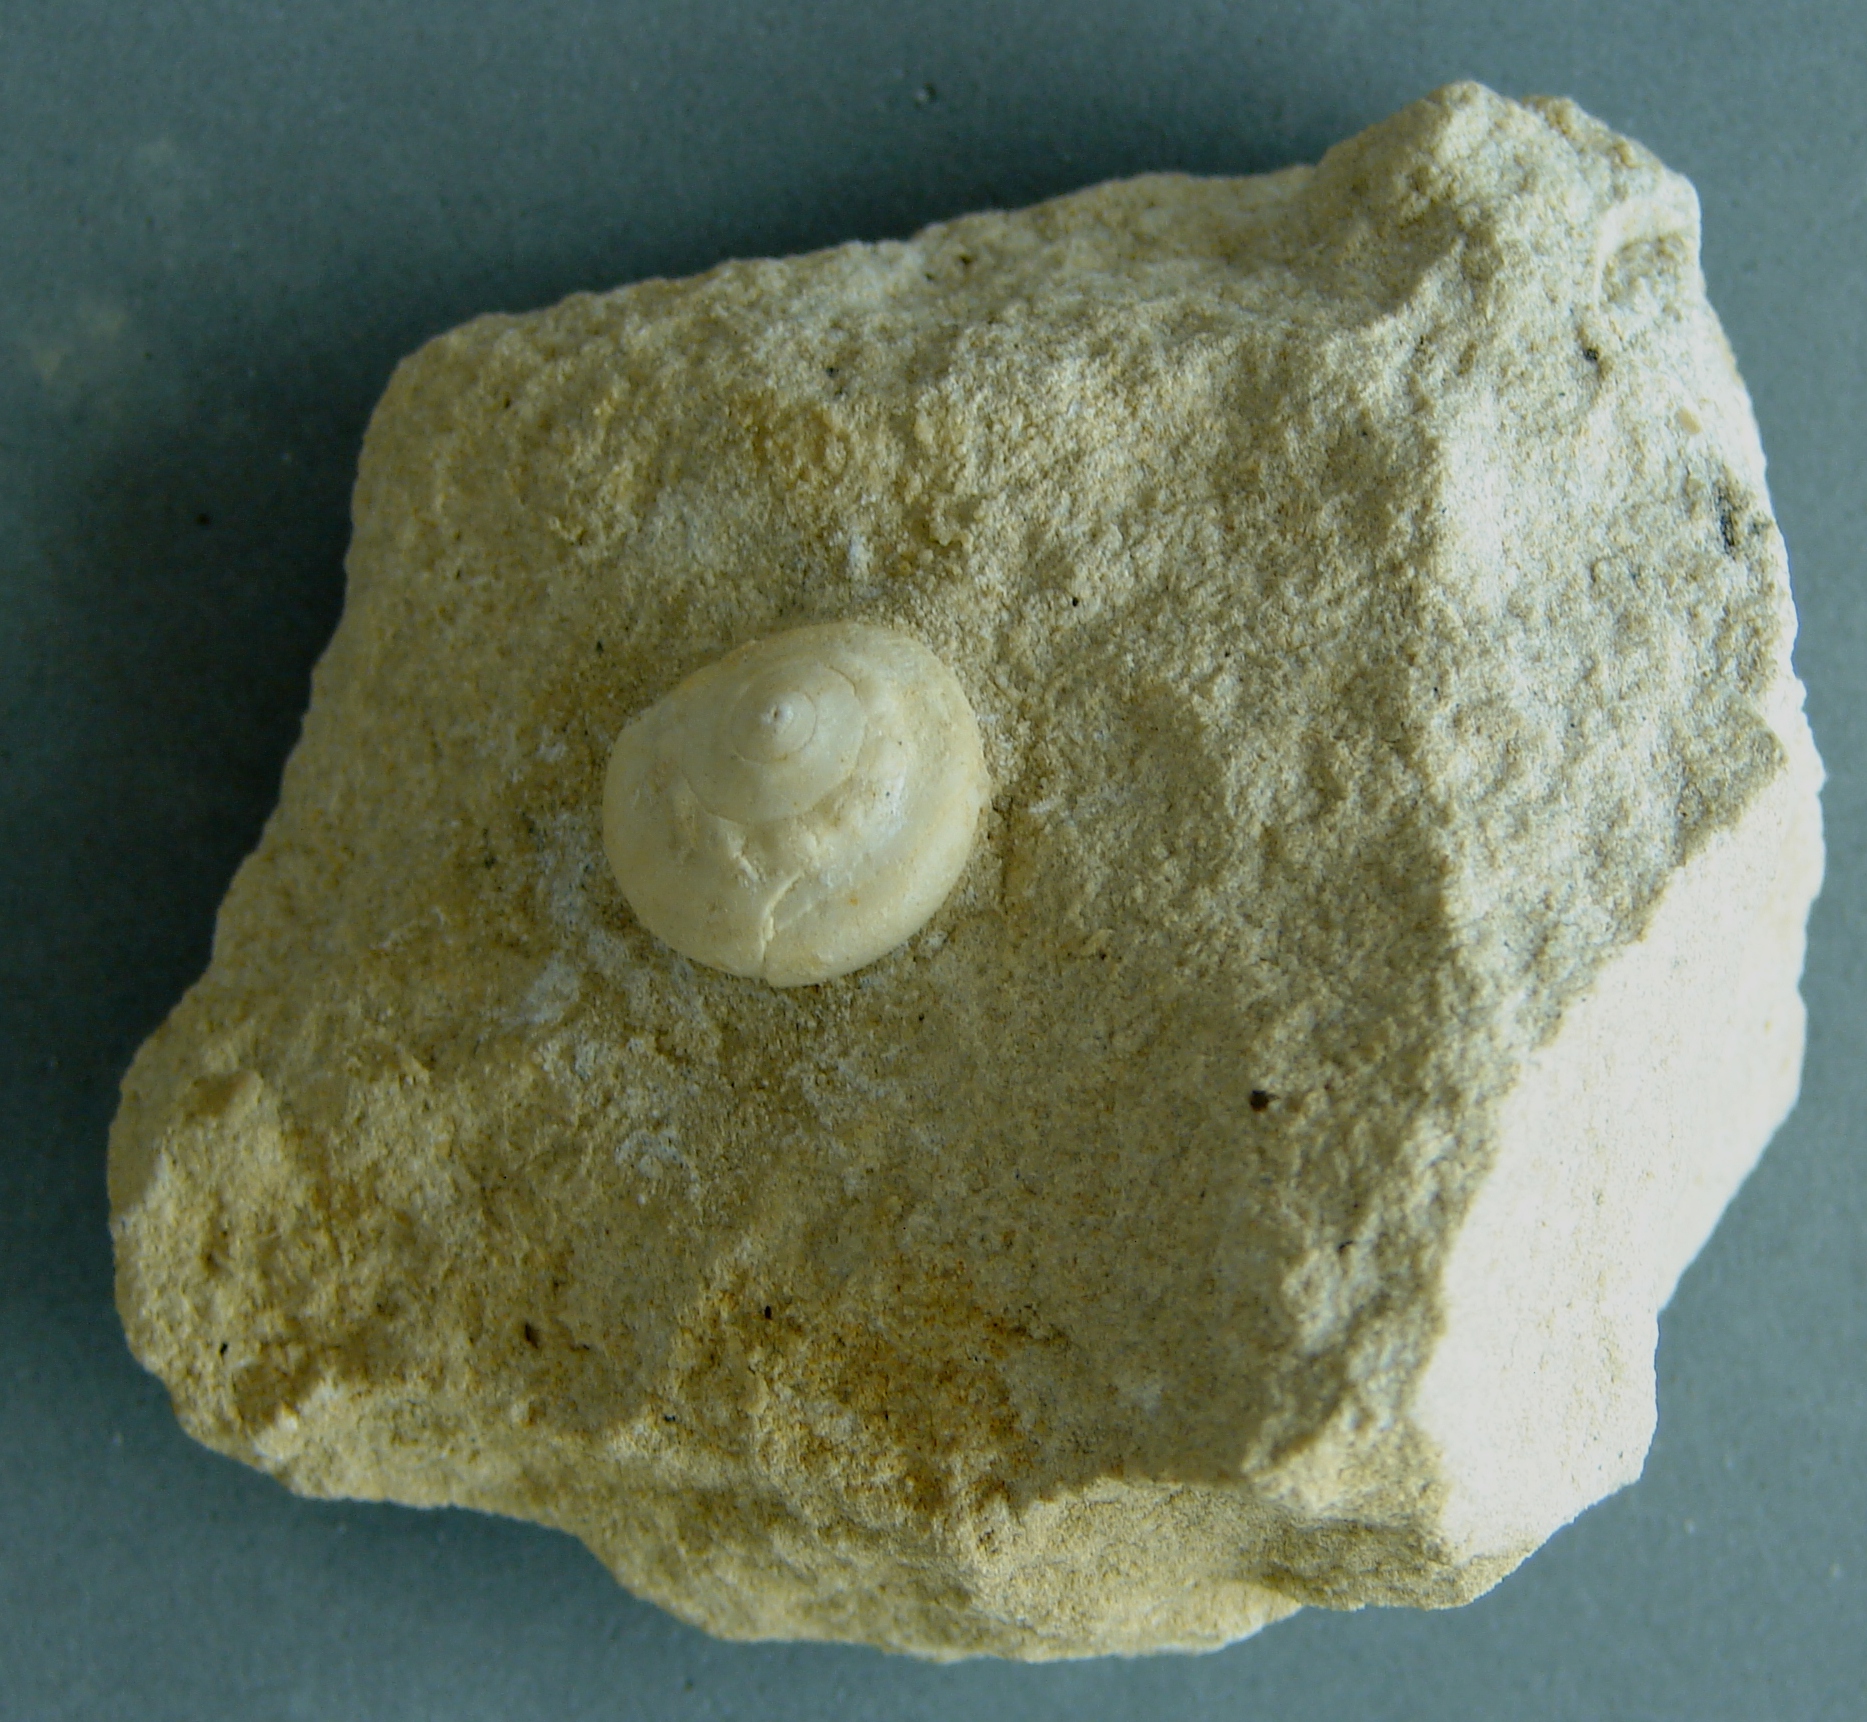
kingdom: Animalia
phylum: Mollusca
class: Gastropoda
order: Pleurotomariida
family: Ptychomphalidae
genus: Ptychomphalus
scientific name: Ptychomphalus Pleurotomaria wehenkeli
